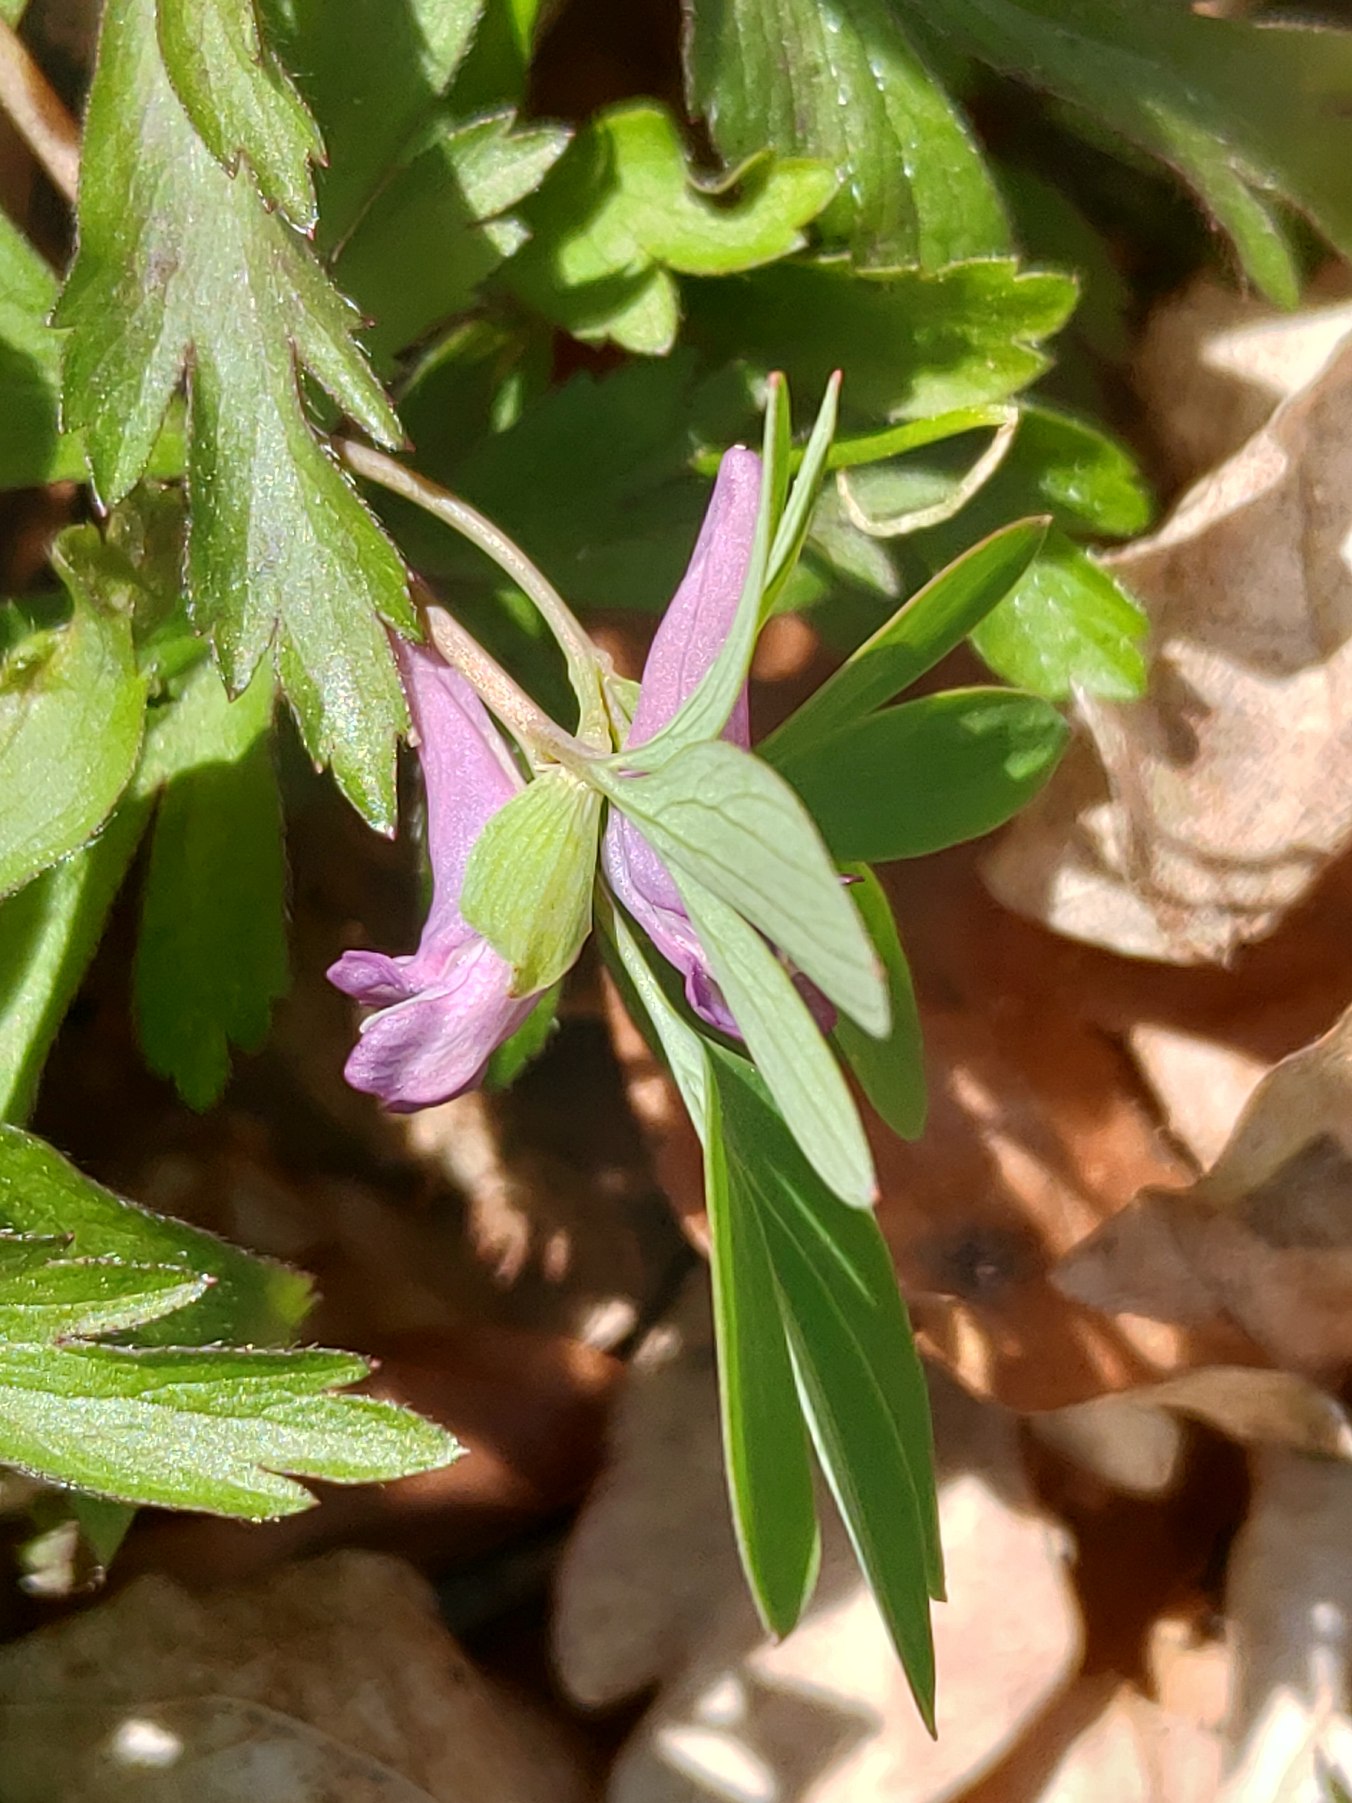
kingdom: Plantae
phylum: Tracheophyta
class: Magnoliopsida
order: Ranunculales
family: Papaveraceae
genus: Corydalis
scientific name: Corydalis intermedia
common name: Liden lærkespore
